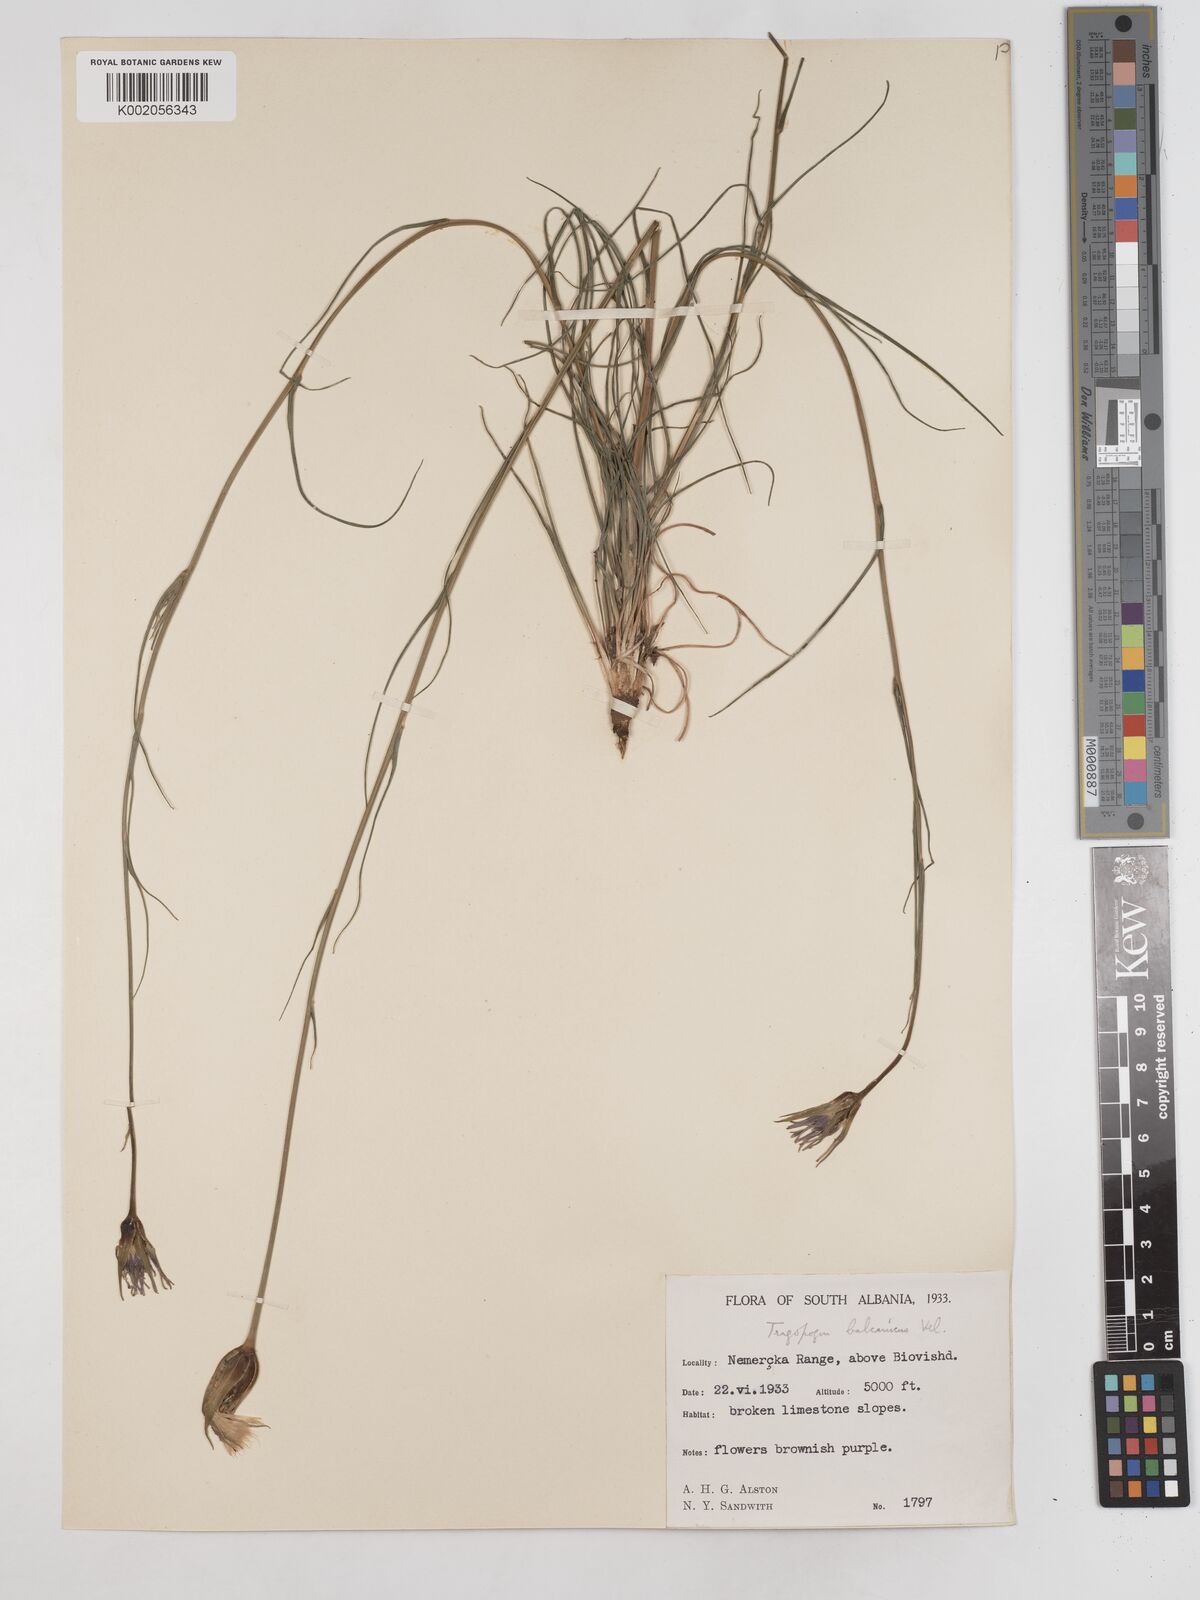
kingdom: Plantae
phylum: Tracheophyta
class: Magnoliopsida
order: Asterales
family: Asteraceae
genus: Tragopogon
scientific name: Tragopogon balcanicus
